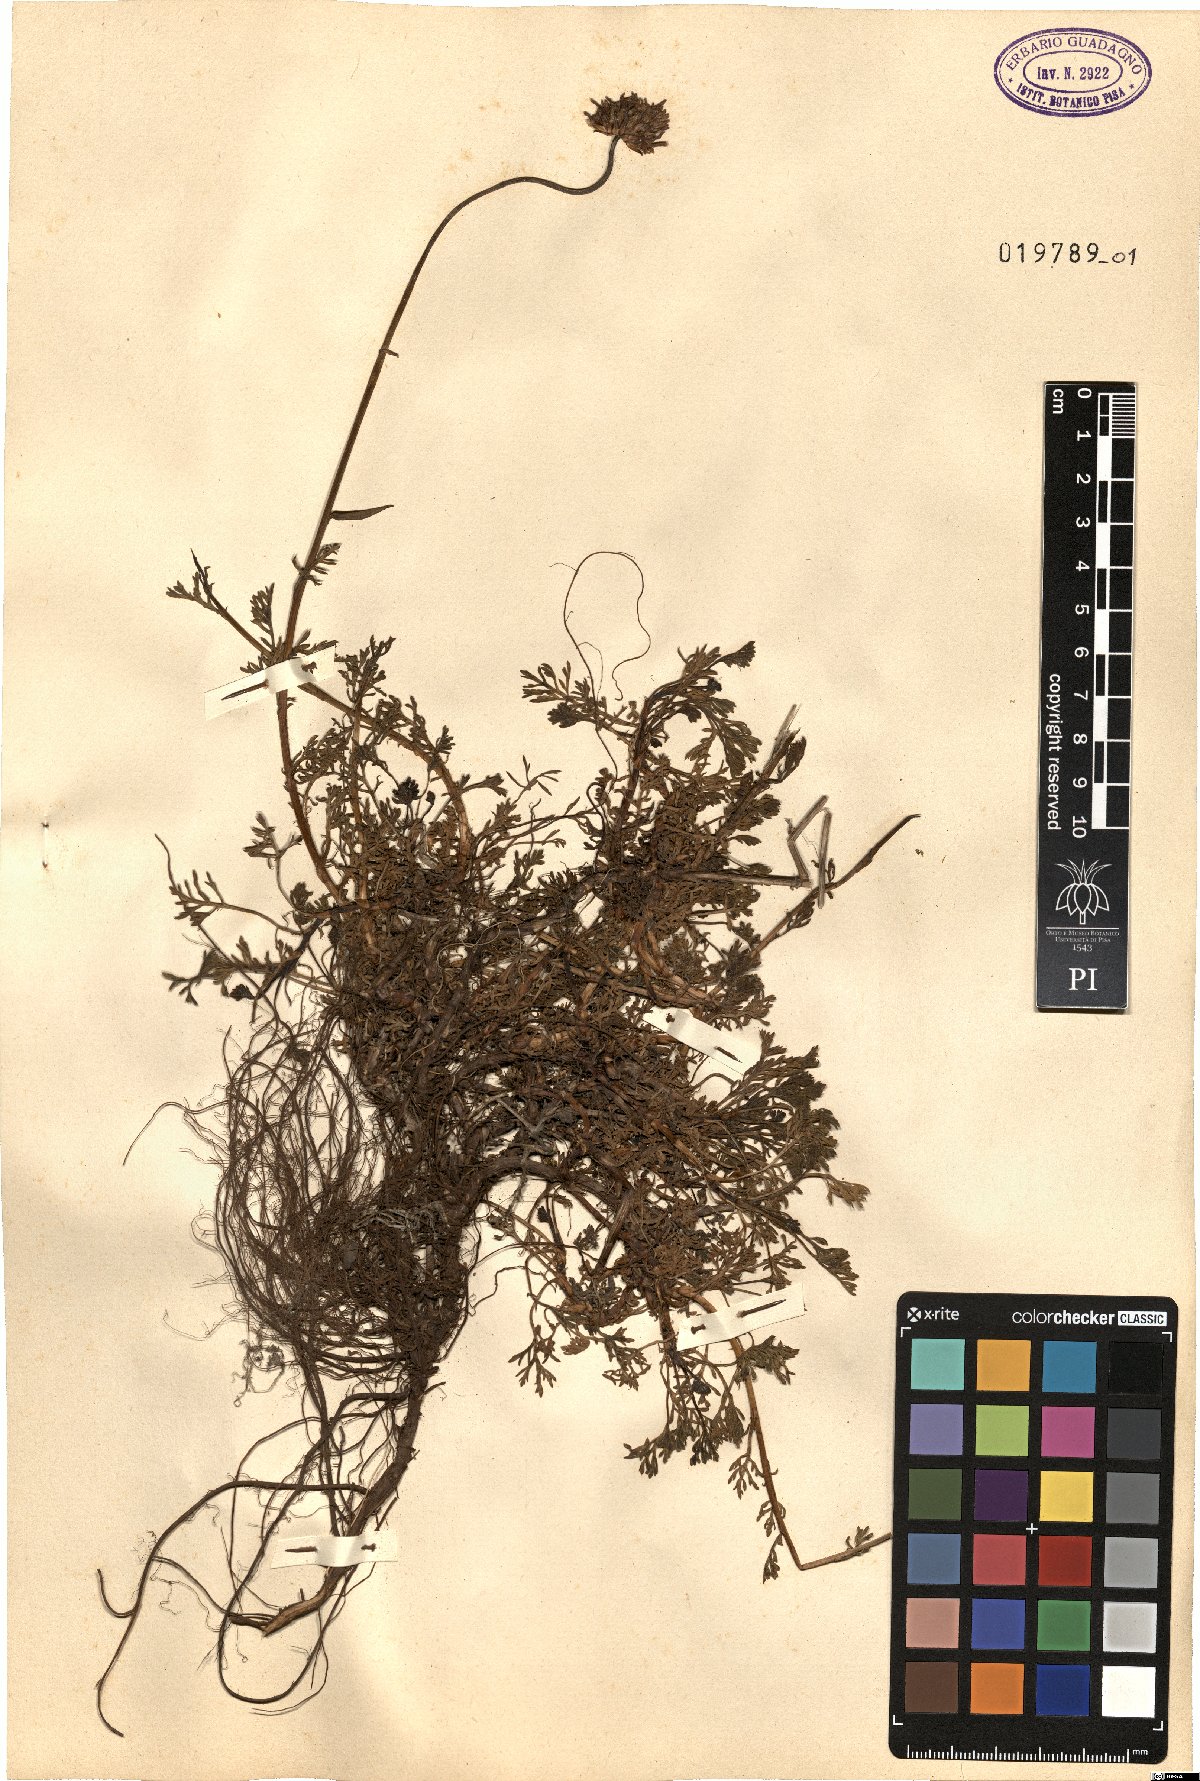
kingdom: Plantae
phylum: Tracheophyta
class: Magnoliopsida
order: Asterales
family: Asteraceae
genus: Anthemis
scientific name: Anthemis cretica
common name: Mountain dog-daisy
